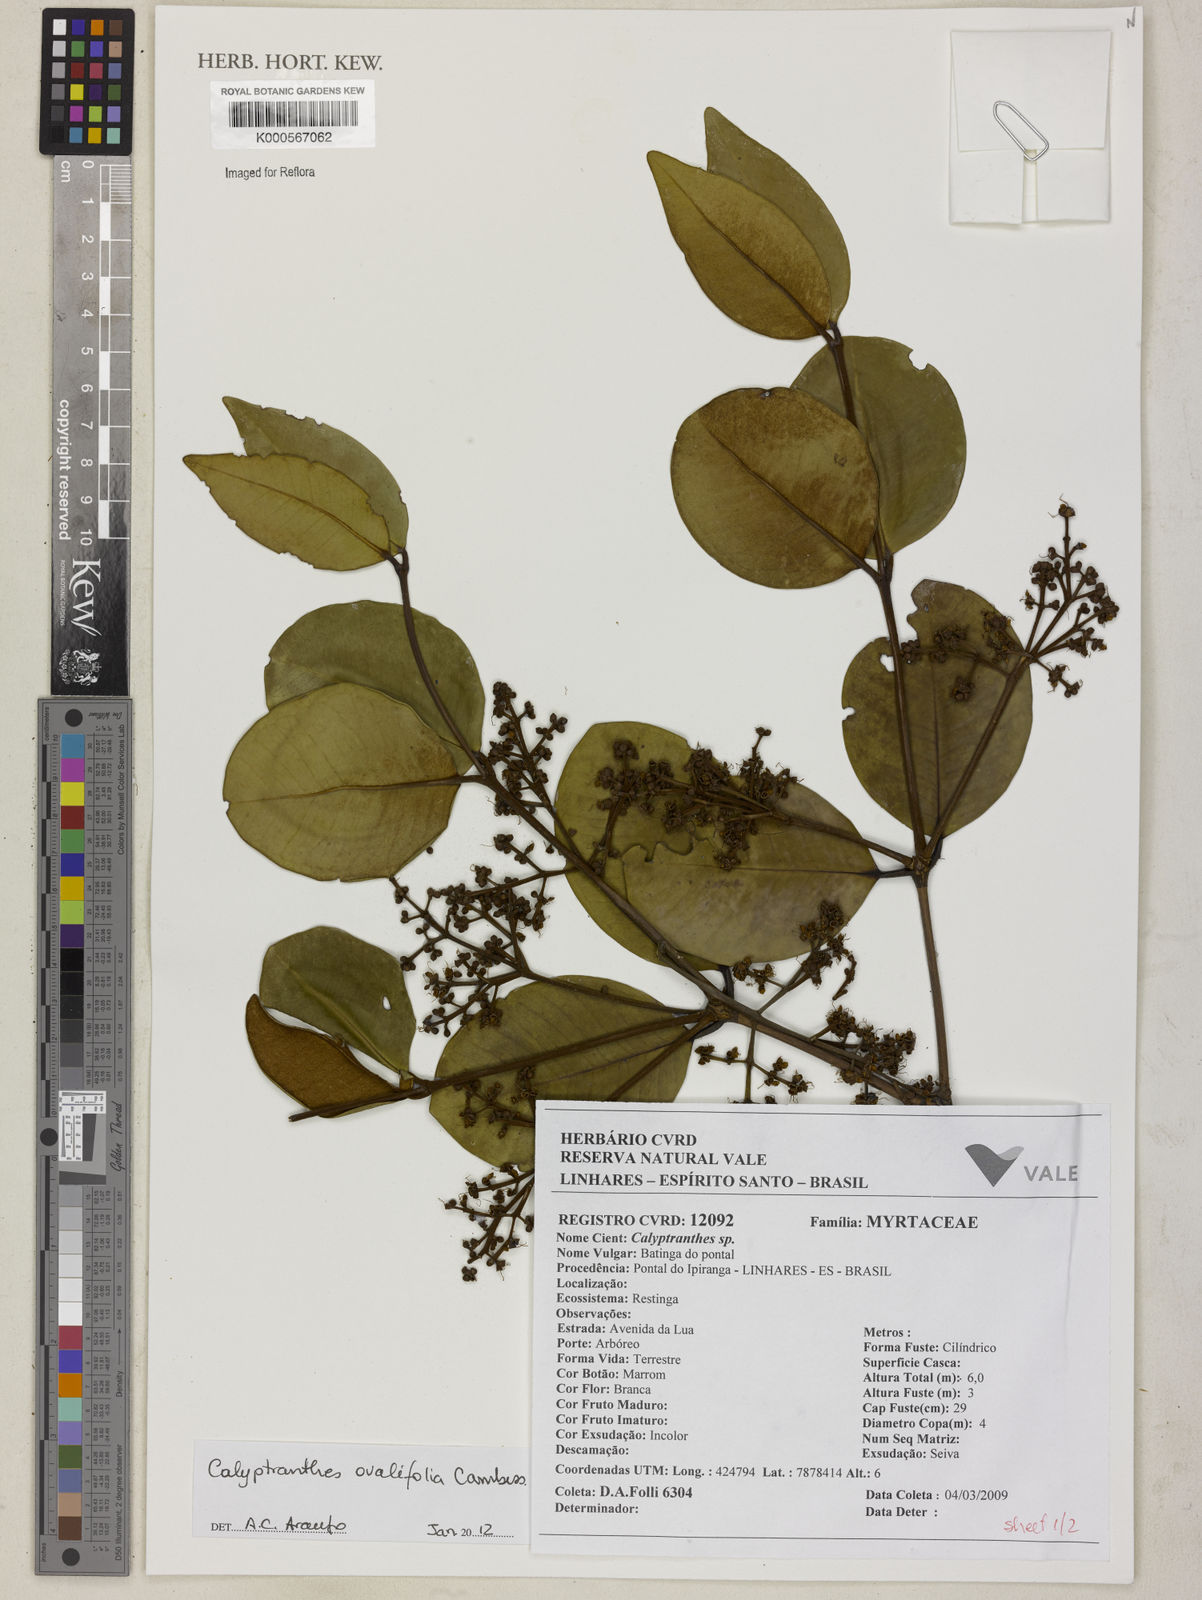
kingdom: Plantae
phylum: Tracheophyta
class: Magnoliopsida
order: Myrtales
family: Myrtaceae
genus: Calyptranthes
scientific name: Calyptranthes ovalifolia
